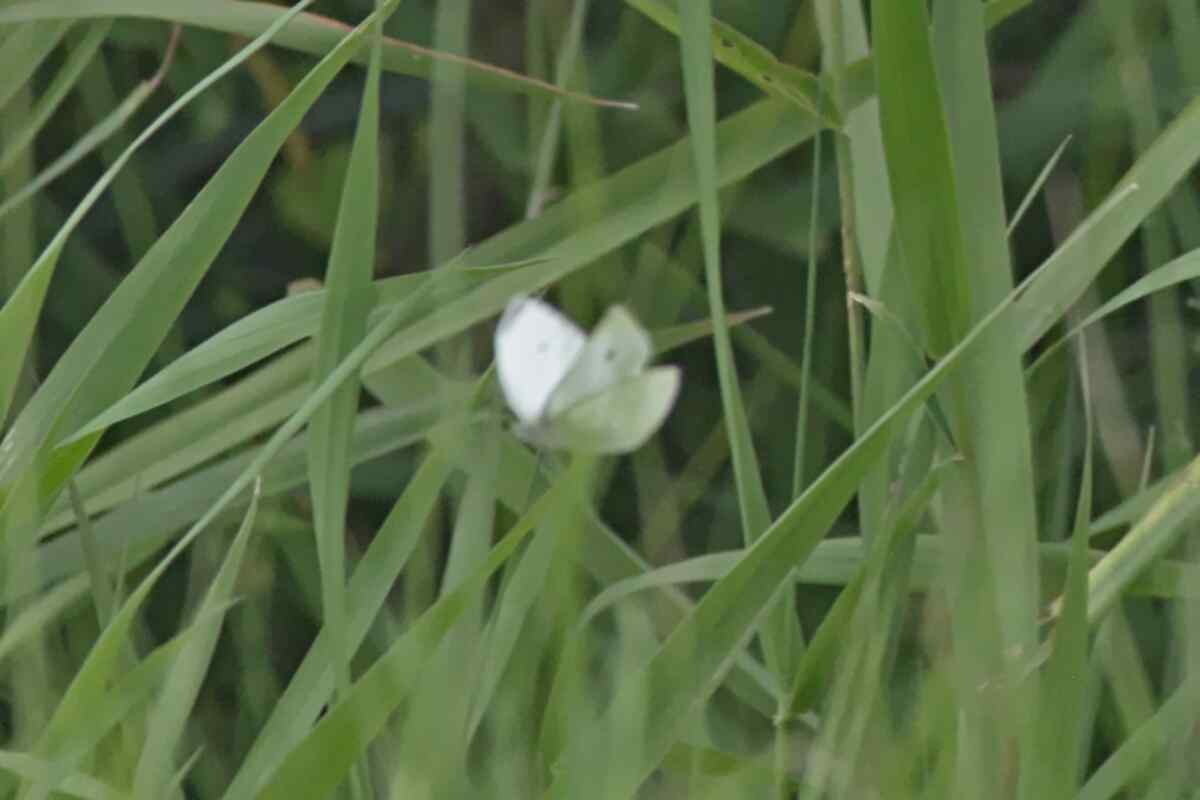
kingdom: Animalia
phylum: Arthropoda
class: Insecta
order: Lepidoptera
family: Pieridae
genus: Pieris
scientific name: Pieris rapae
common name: Cabbage White
